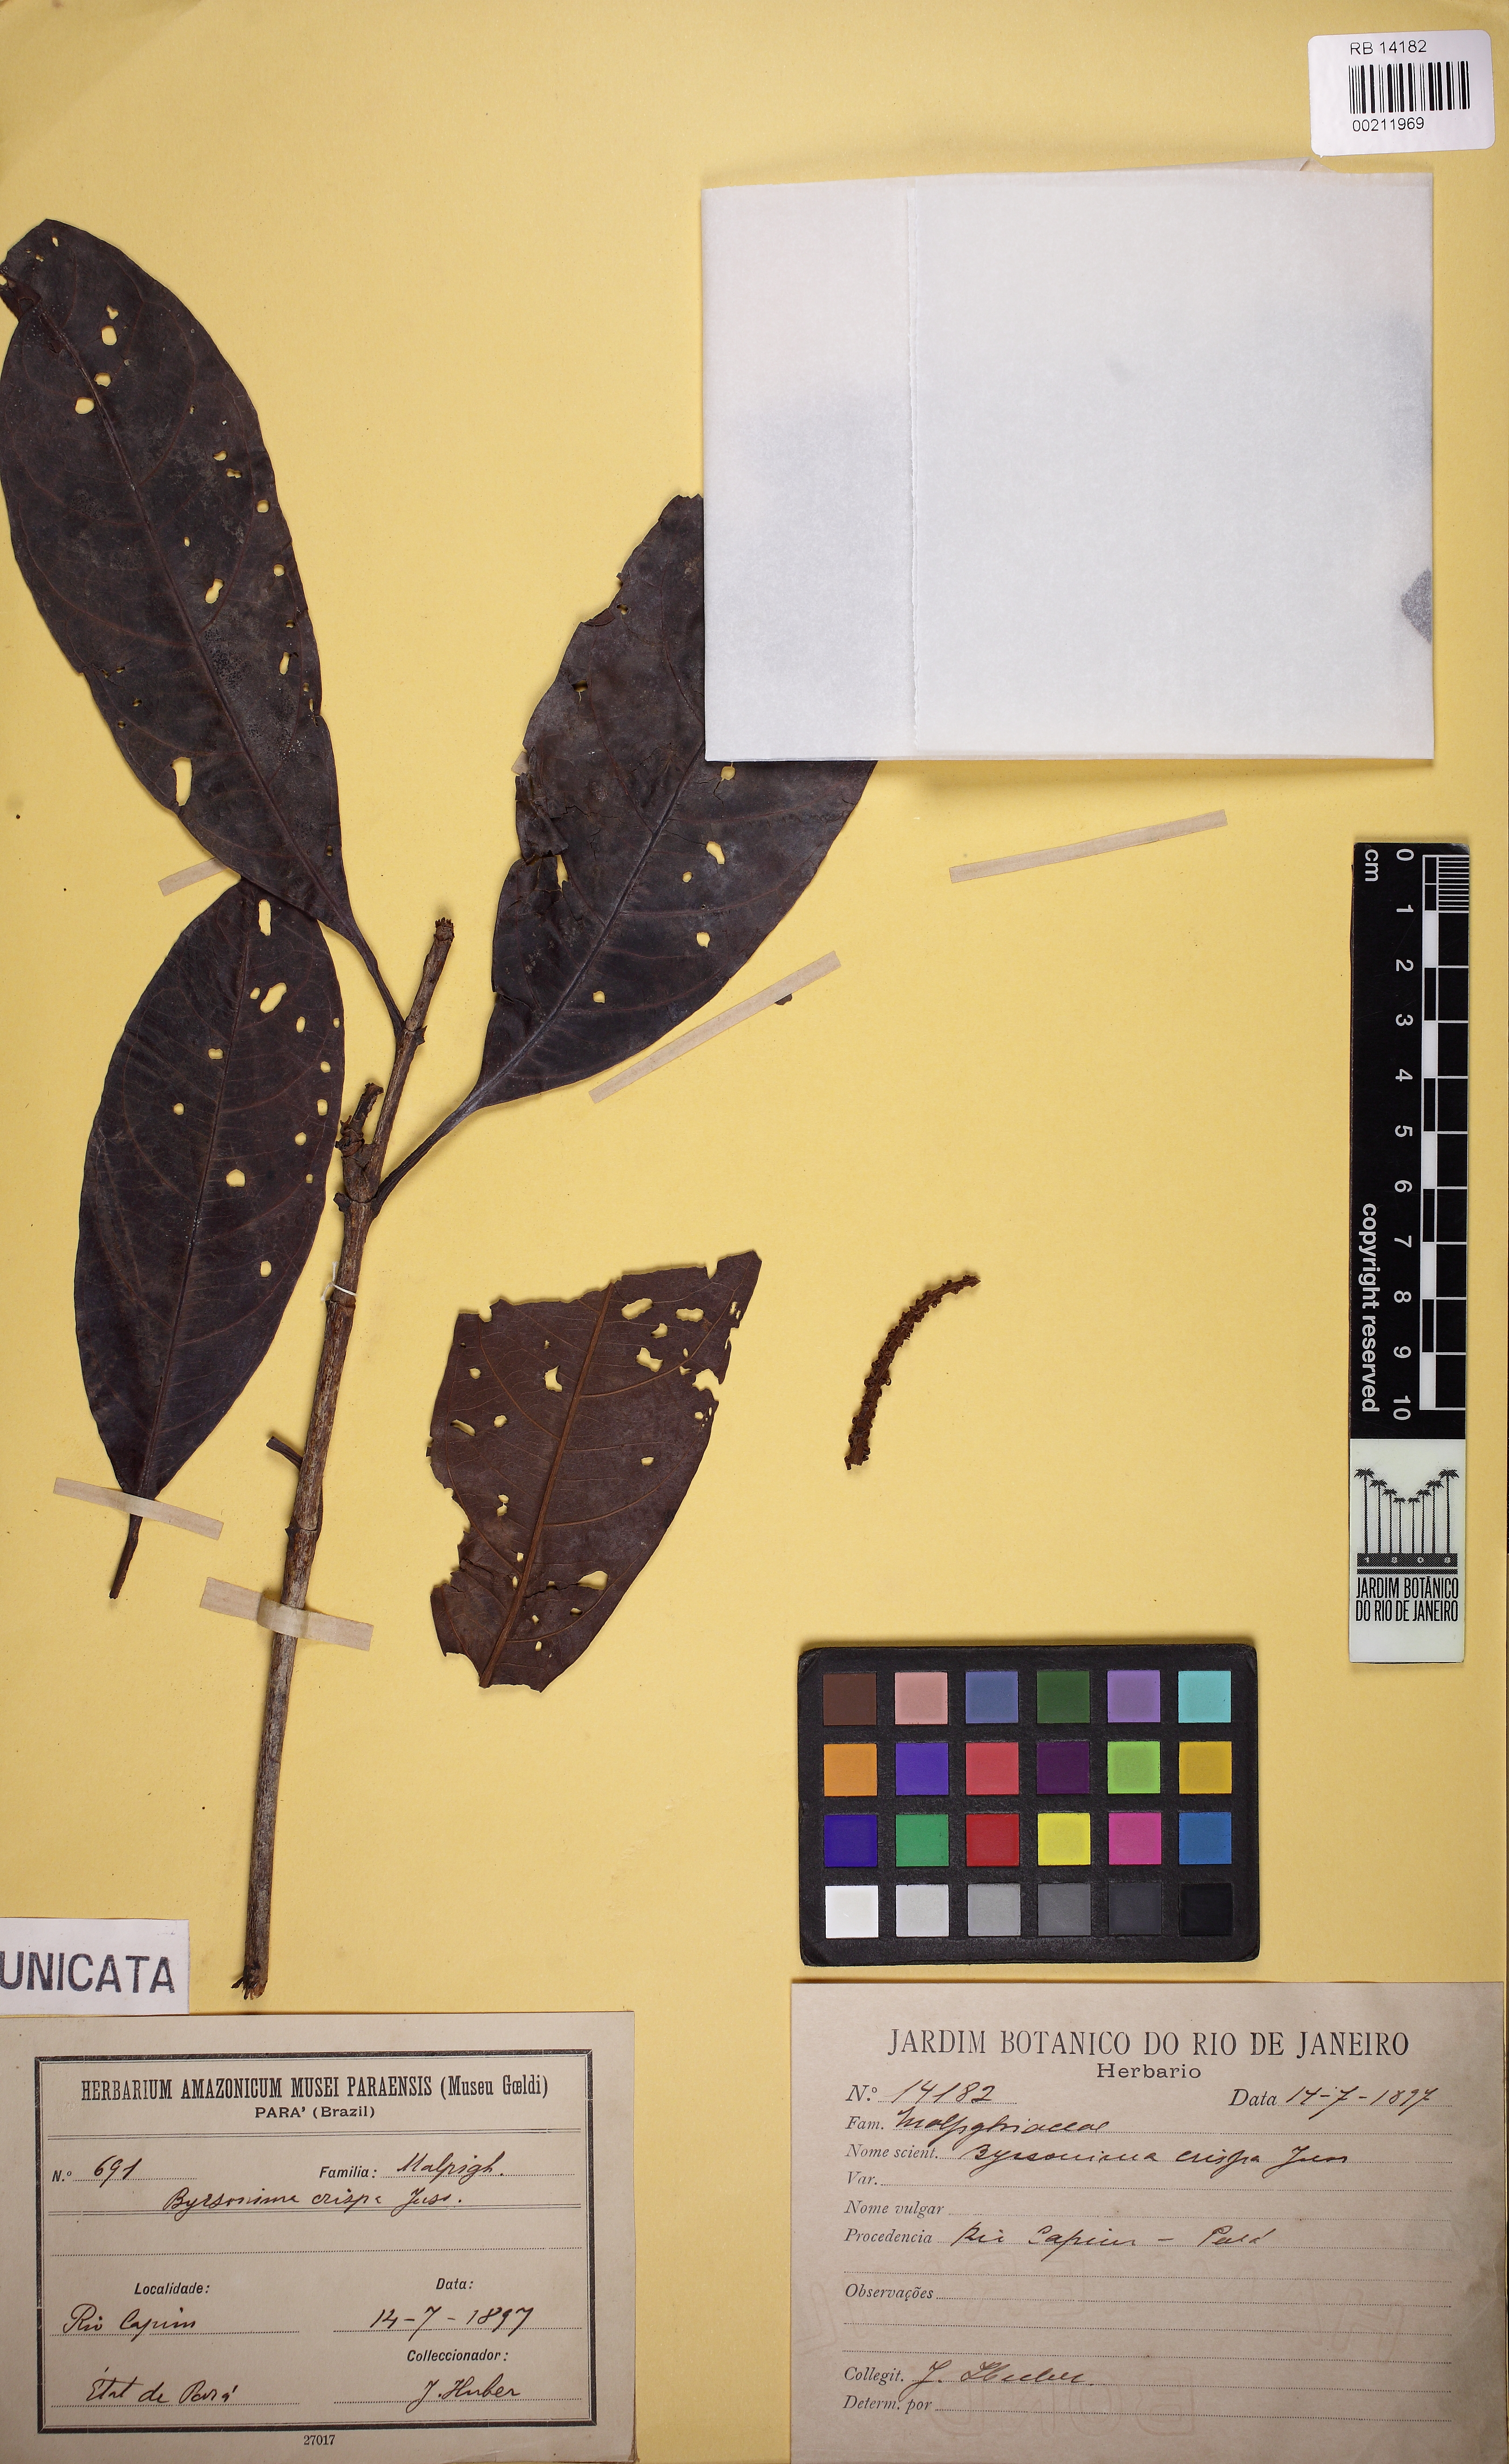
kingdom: Plantae
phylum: Tracheophyta
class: Magnoliopsida
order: Malpighiales
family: Malpighiaceae
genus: Byrsonima
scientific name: Byrsonima crispa
